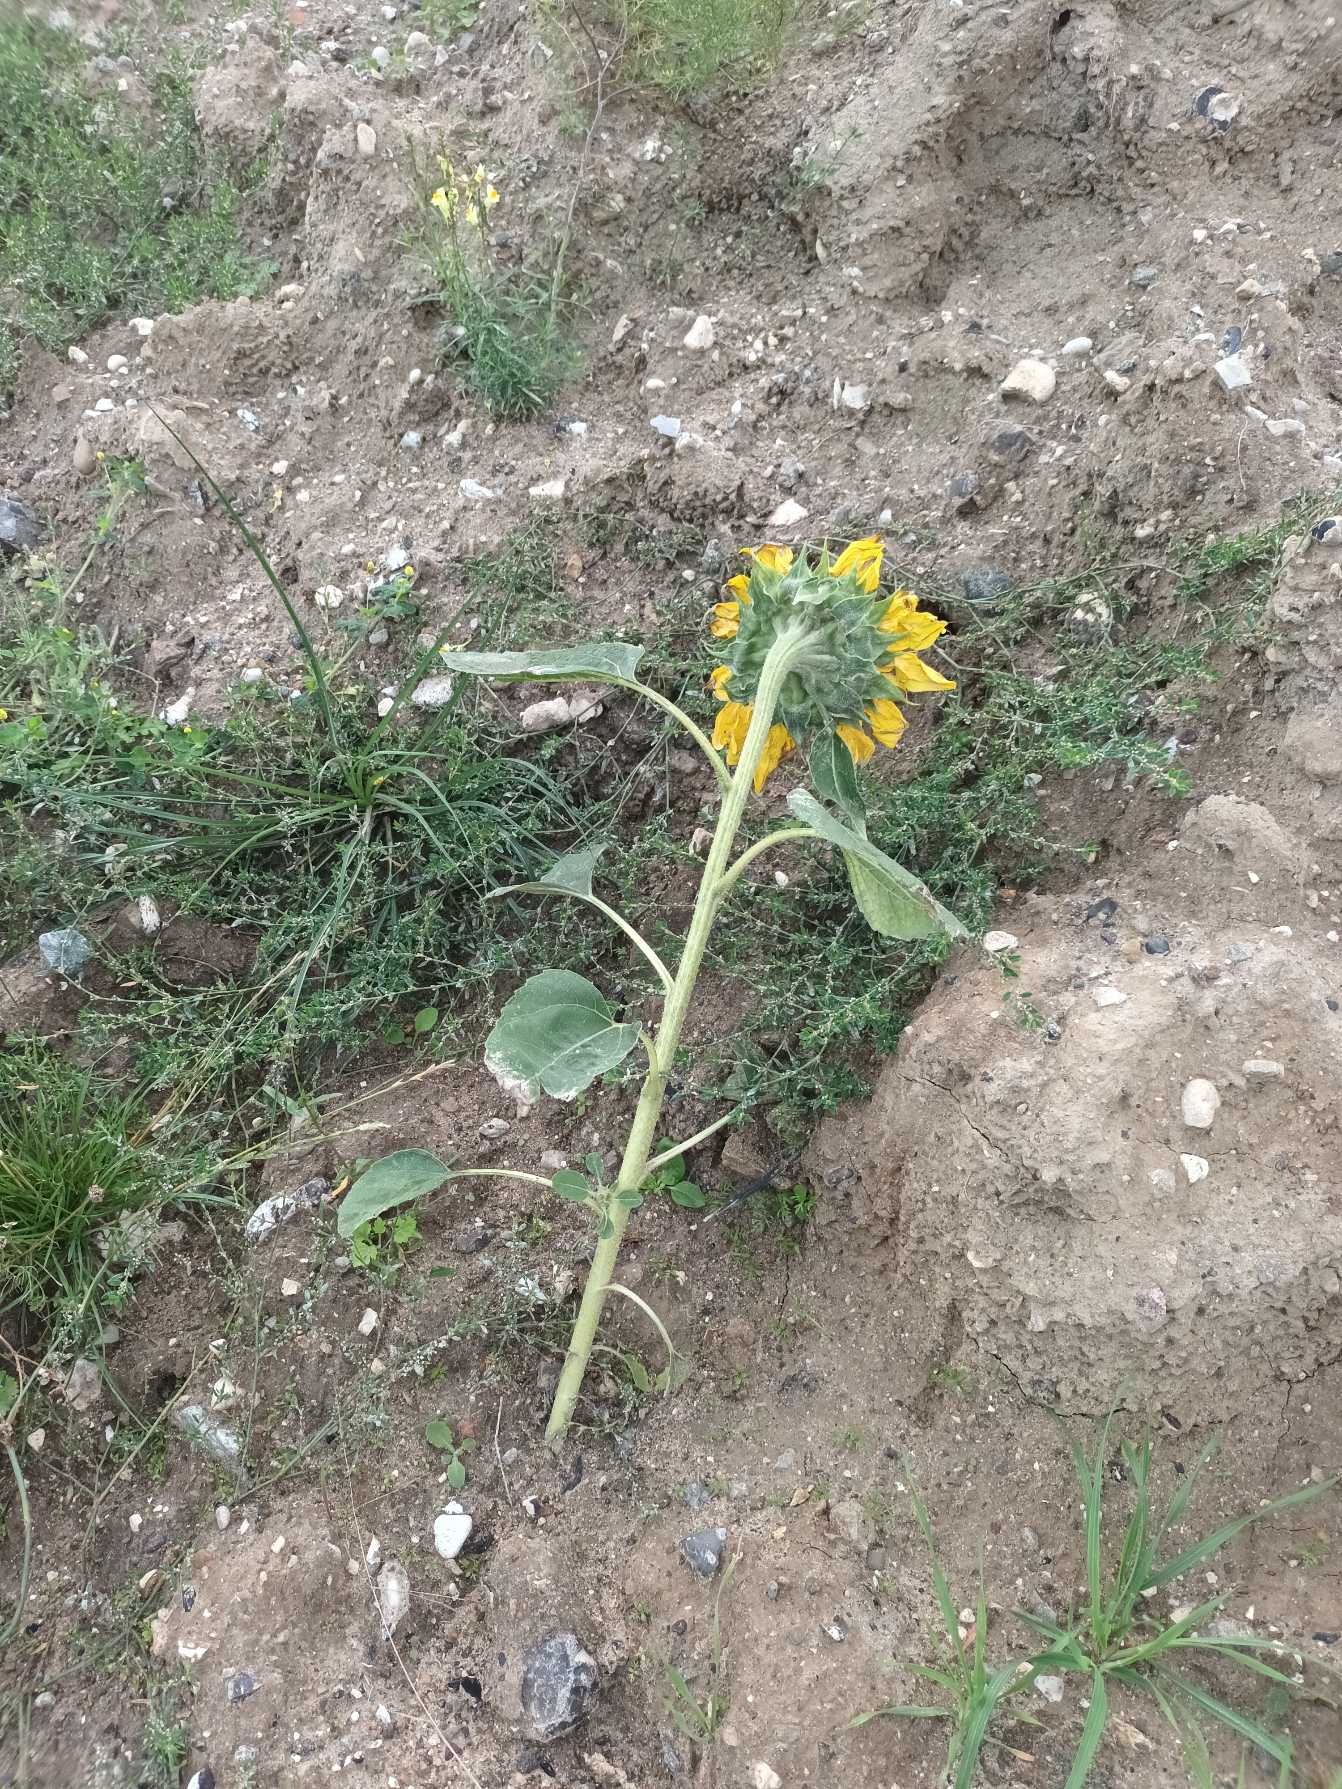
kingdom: Plantae
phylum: Tracheophyta
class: Magnoliopsida
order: Asterales
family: Asteraceae
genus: Helianthus
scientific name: Helianthus annuus
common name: Solsikke
